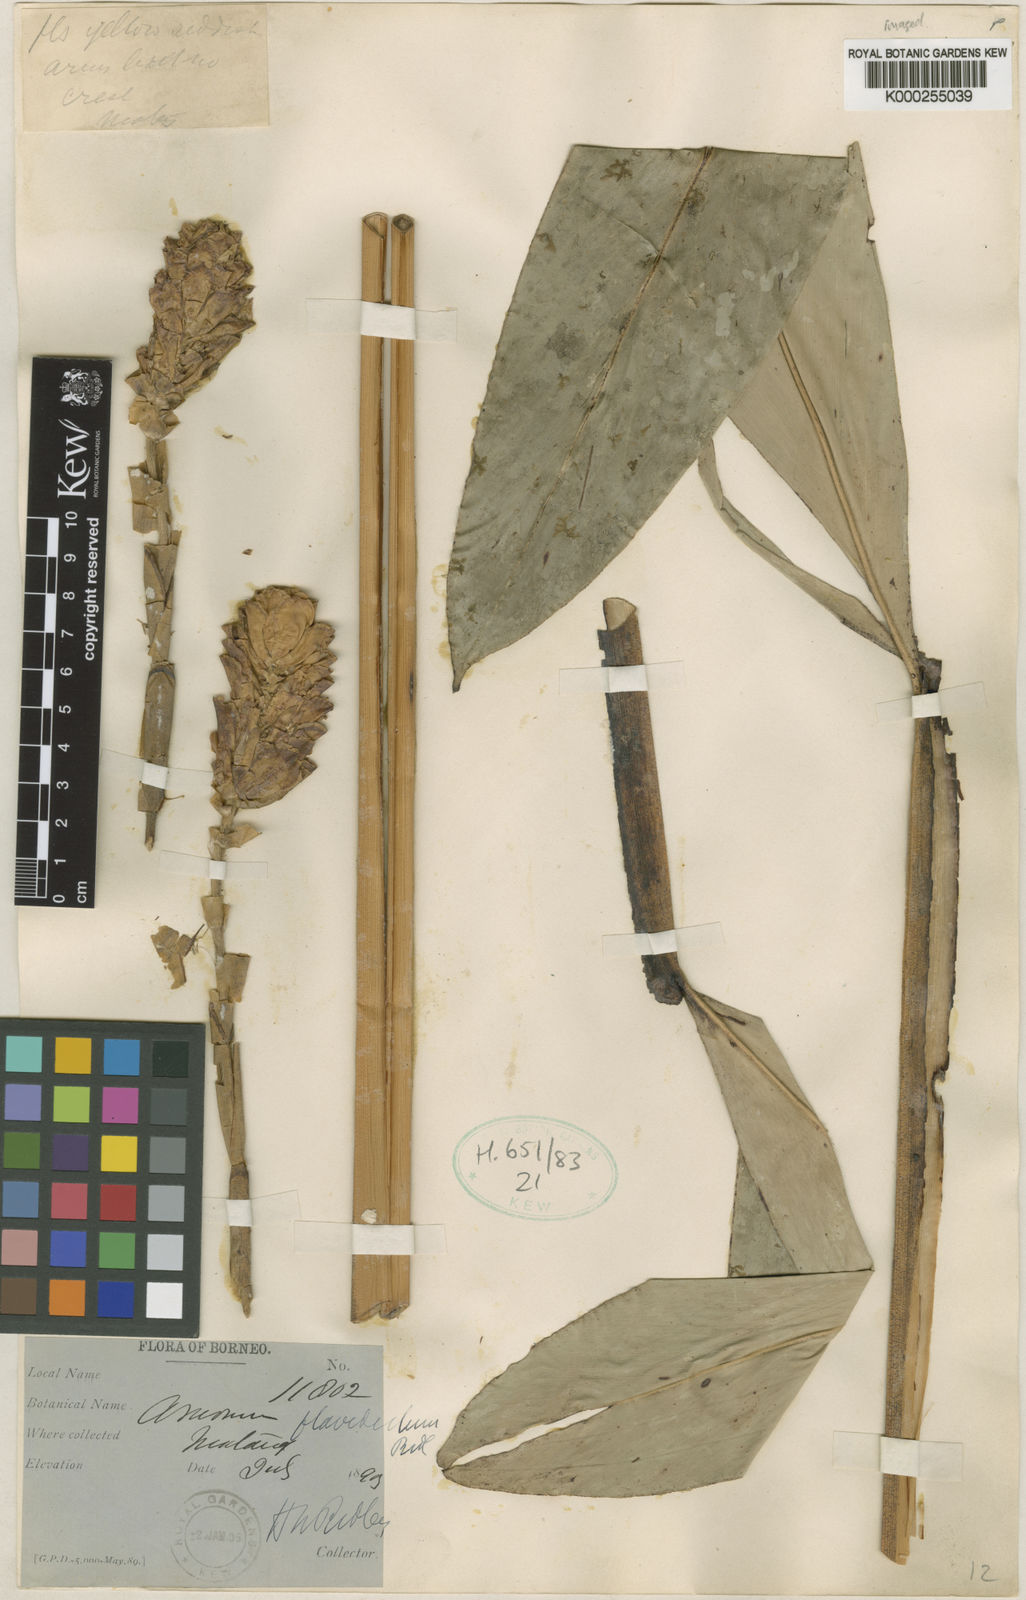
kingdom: Plantae
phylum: Tracheophyta
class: Liliopsida
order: Zingiberales
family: Zingiberaceae
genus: Conamomum
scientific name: Conamomum flavidulum
